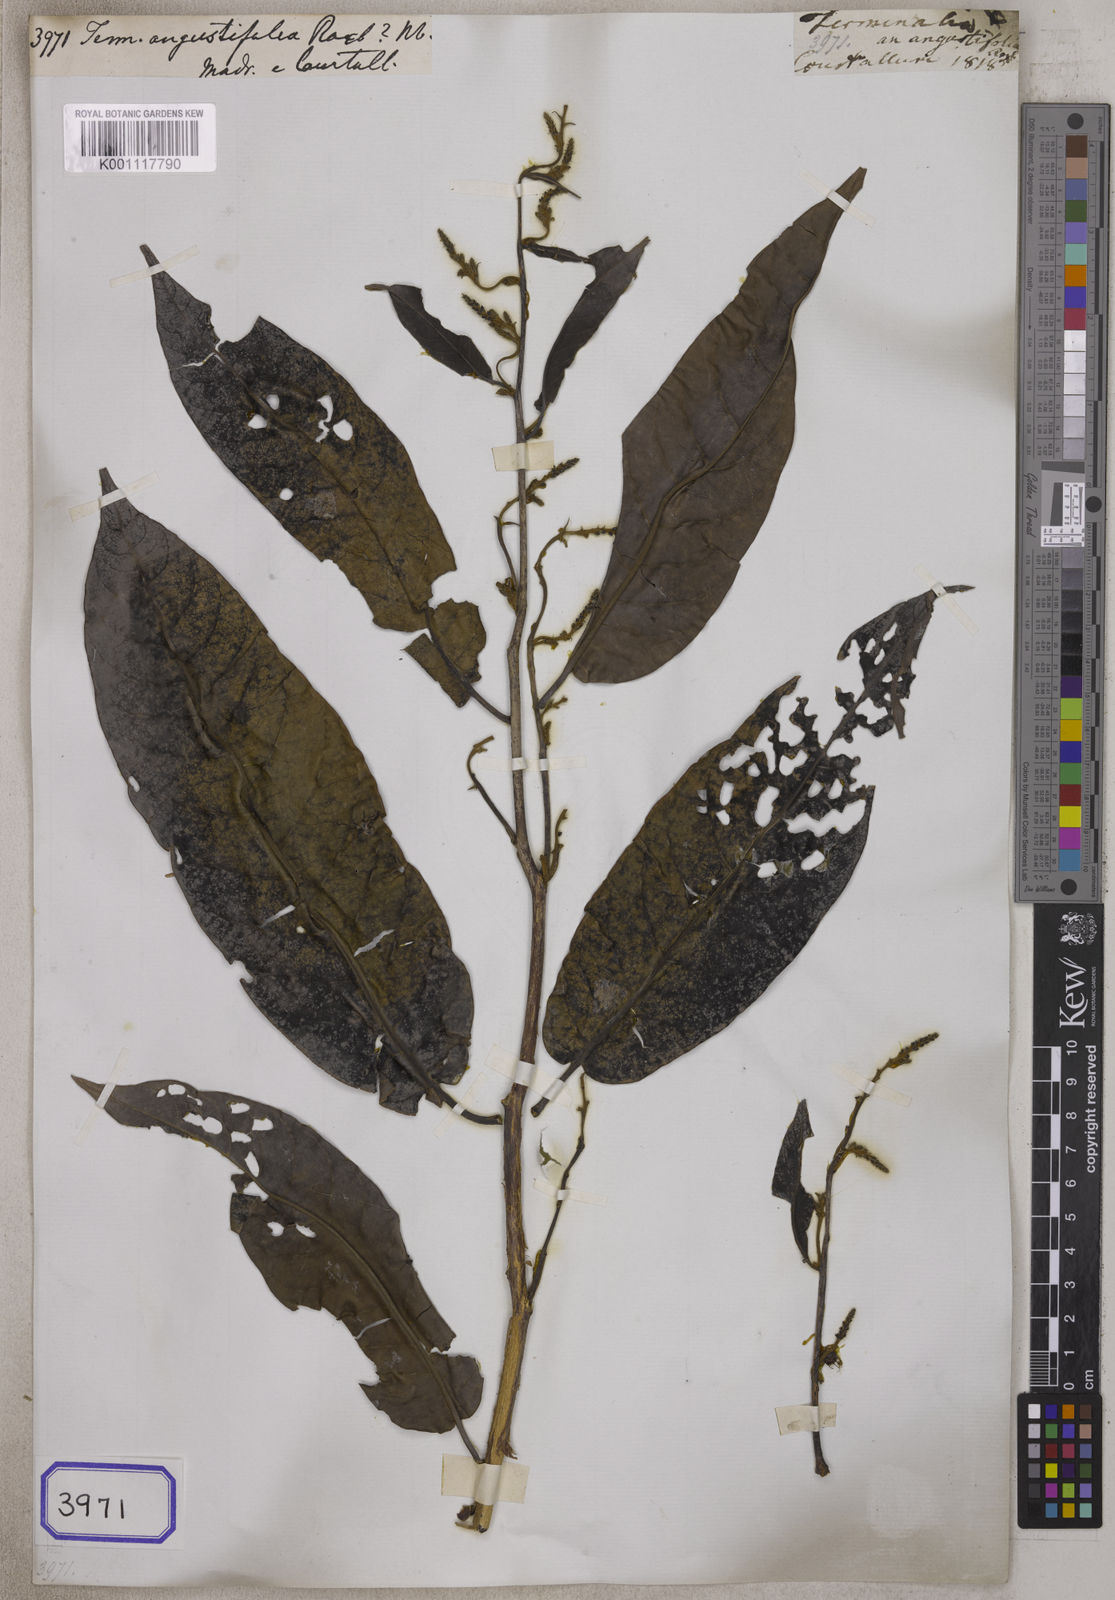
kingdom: Plantae
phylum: Tracheophyta
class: Magnoliopsida
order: Myrtales
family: Combretaceae
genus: Terminalia
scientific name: Terminalia travancorensis
